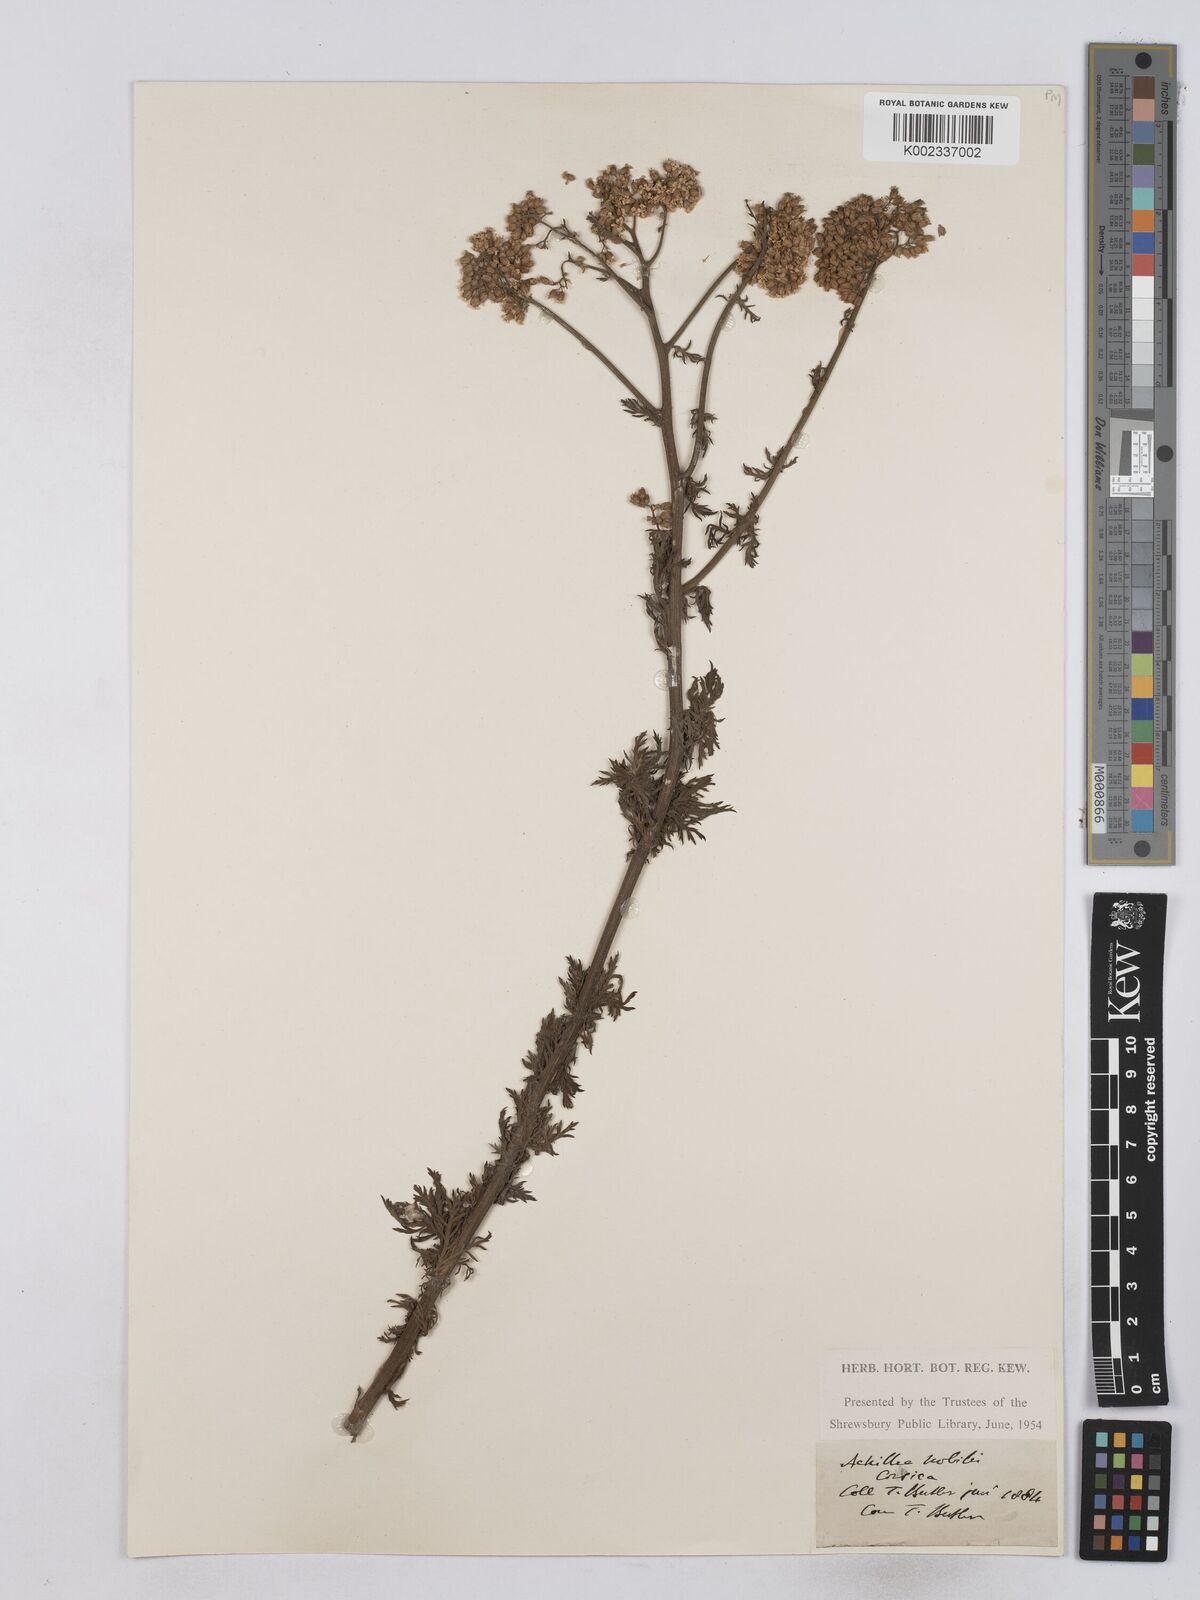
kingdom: Plantae
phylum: Tracheophyta
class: Magnoliopsida
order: Asterales
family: Asteraceae
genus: Achillea
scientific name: Achillea nobilis
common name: Noble yarrow
